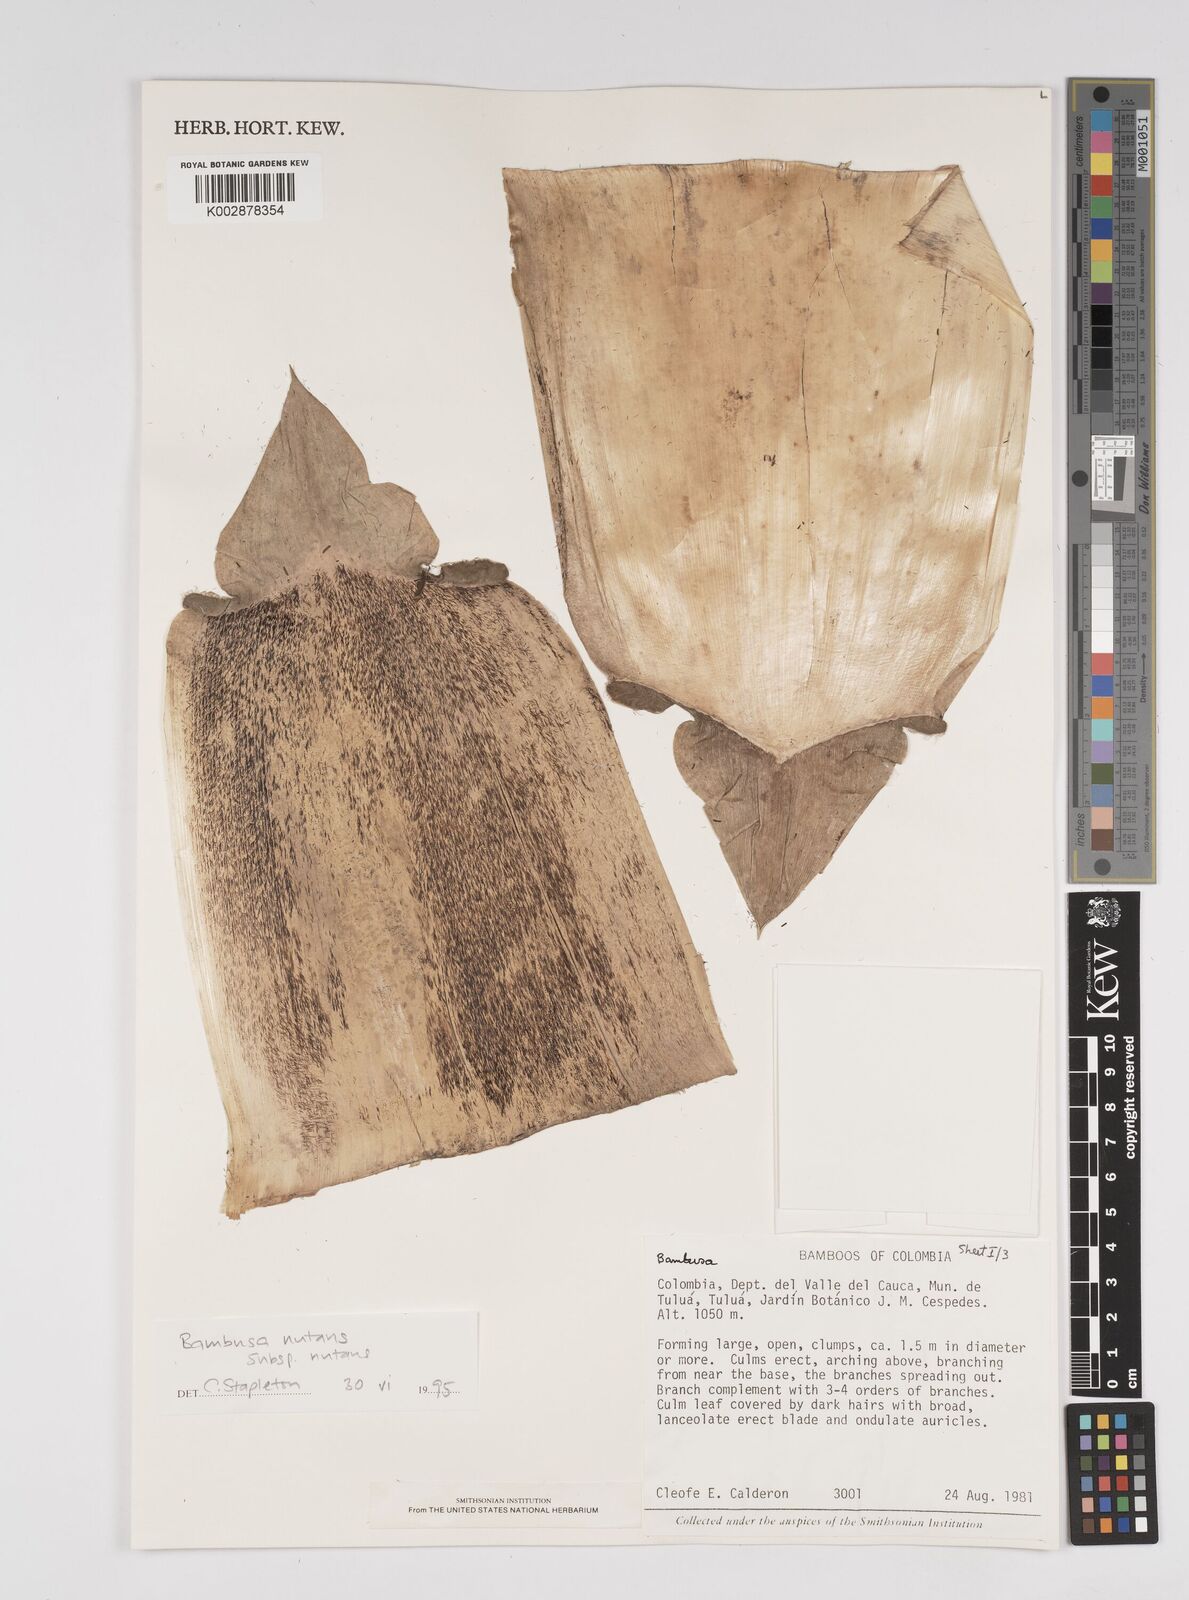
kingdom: Plantae
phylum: Tracheophyta
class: Liliopsida
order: Poales
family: Poaceae
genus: Bambusa
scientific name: Bambusa nutans
